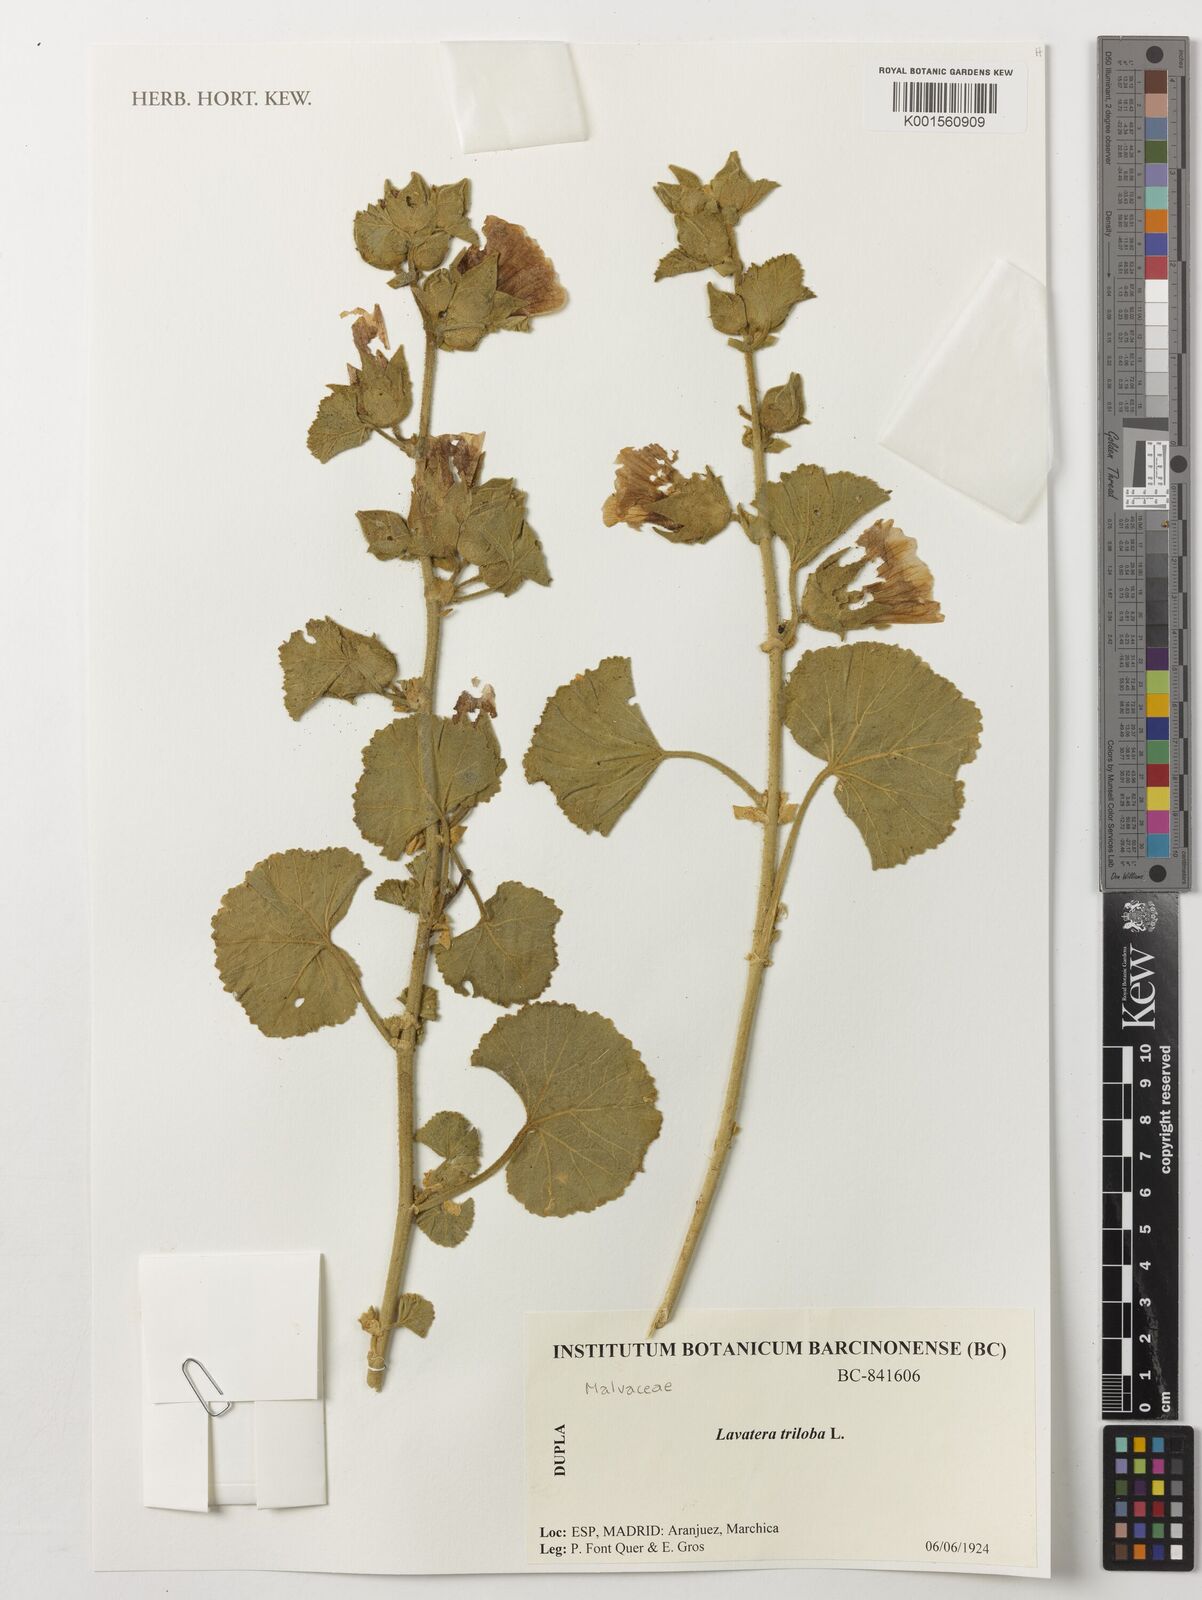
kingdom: Plantae
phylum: Tracheophyta
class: Magnoliopsida
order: Malvales
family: Malvaceae
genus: Malva
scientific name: Malva lusitanica
